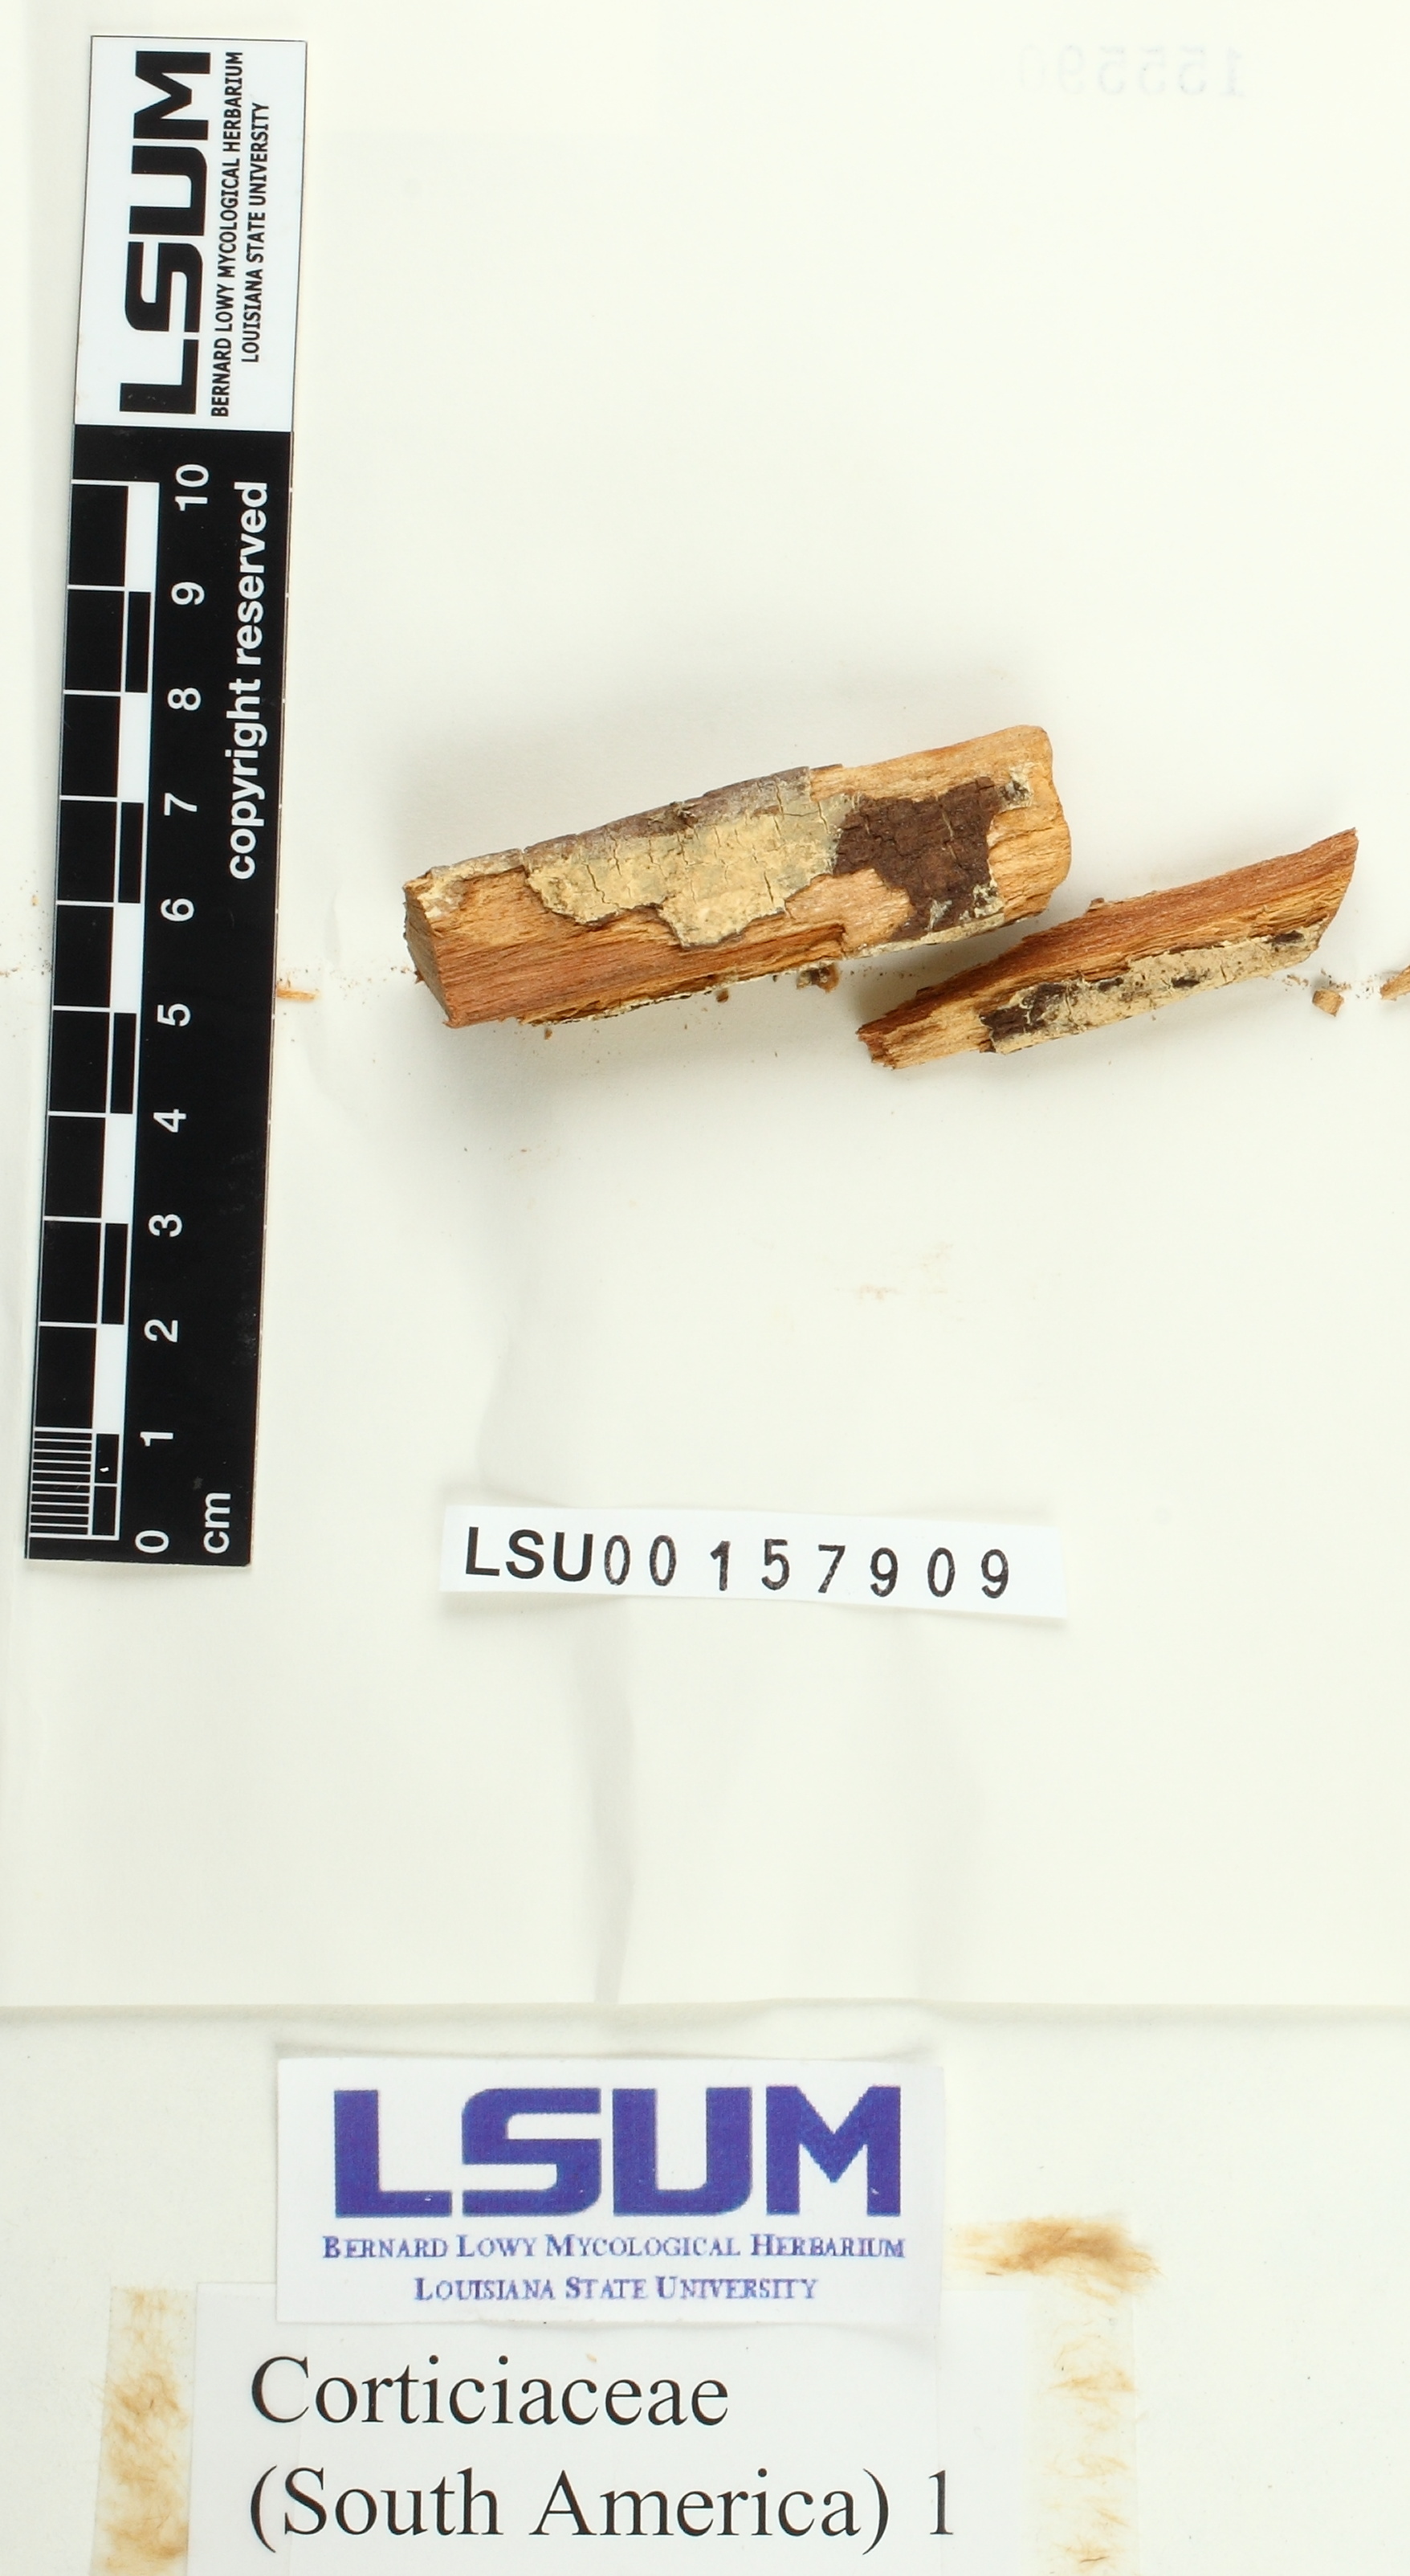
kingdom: Fungi
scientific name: Fungi
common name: Fungi
